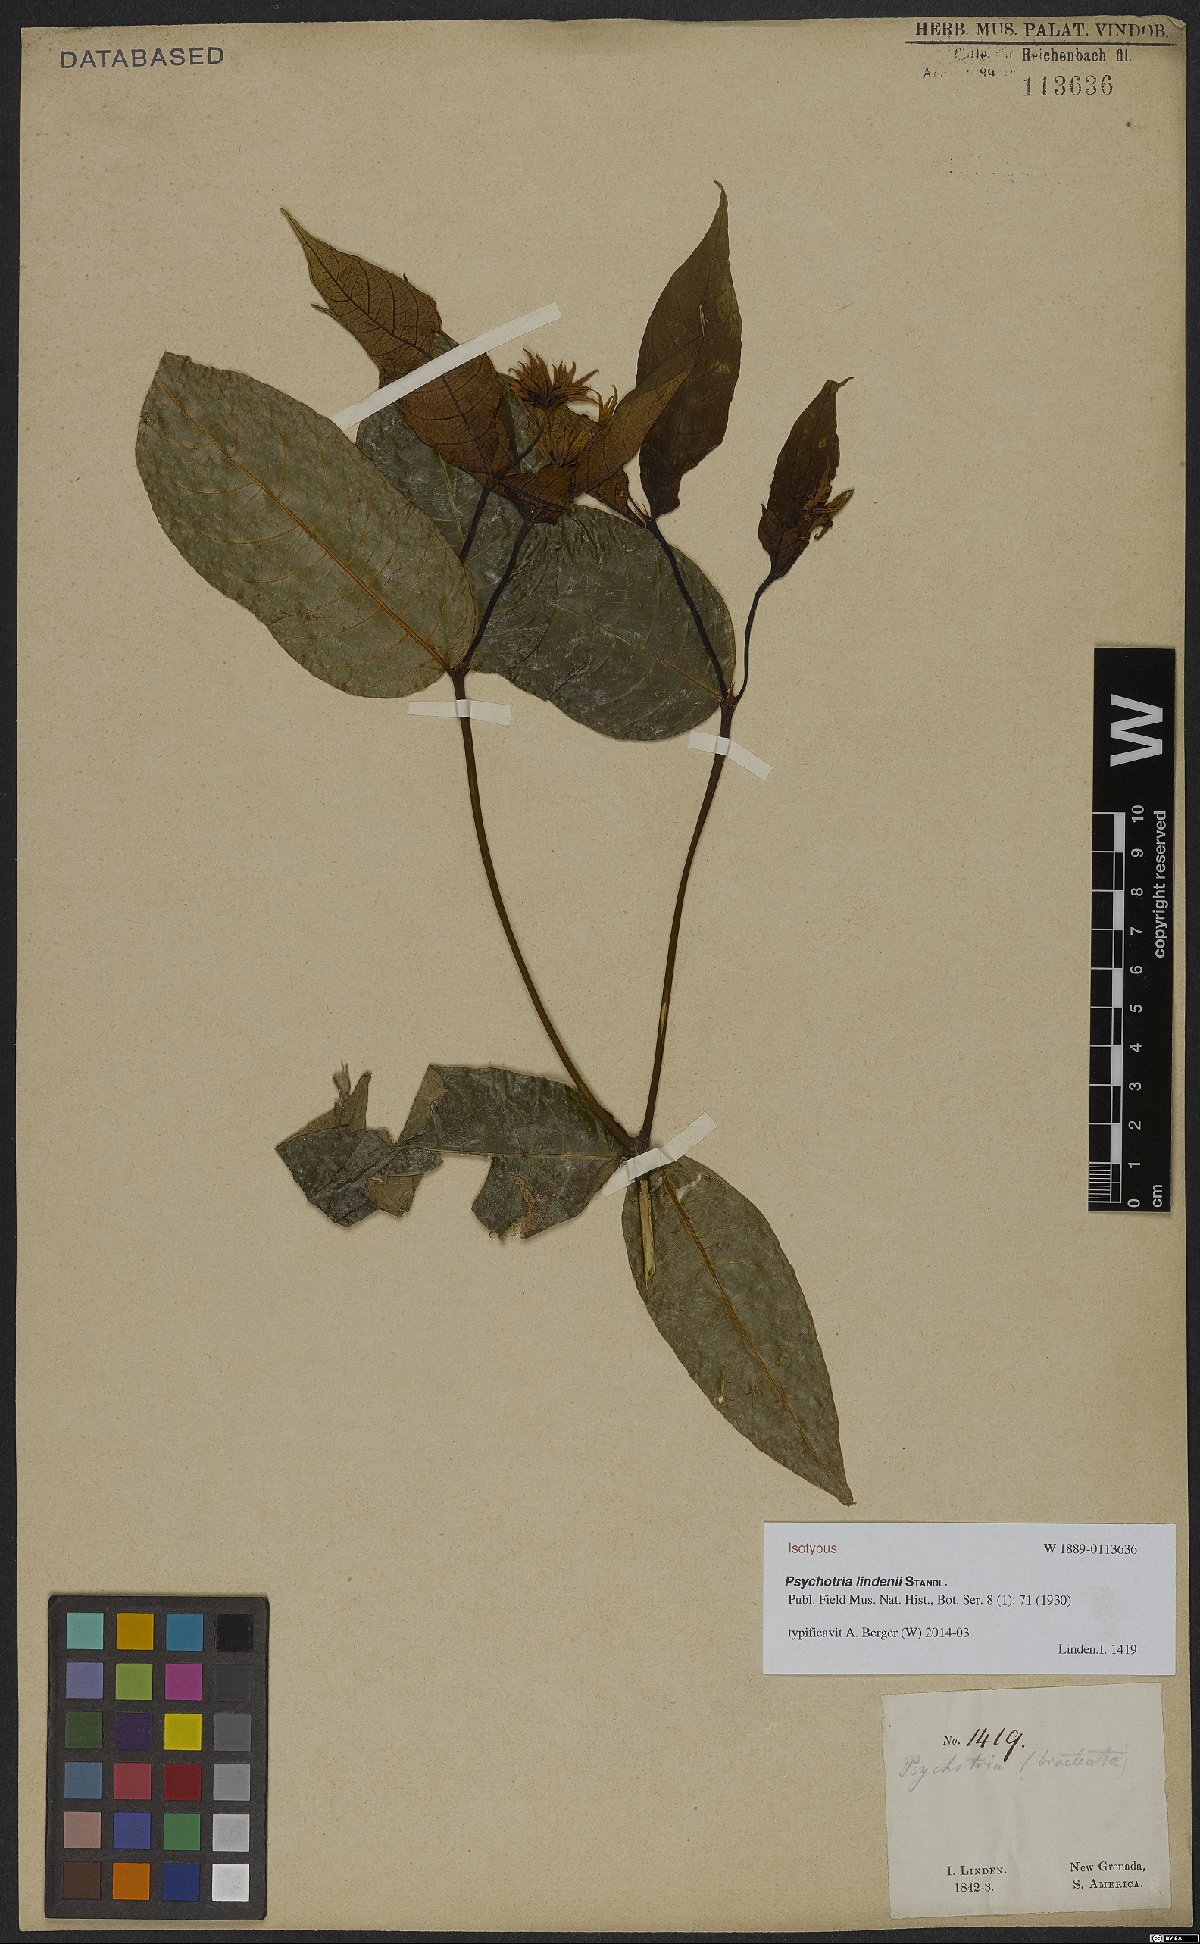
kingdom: Plantae
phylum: Tracheophyta
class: Magnoliopsida
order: Gentianales
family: Rubiaceae
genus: Palicourea
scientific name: Palicourea raveniana
